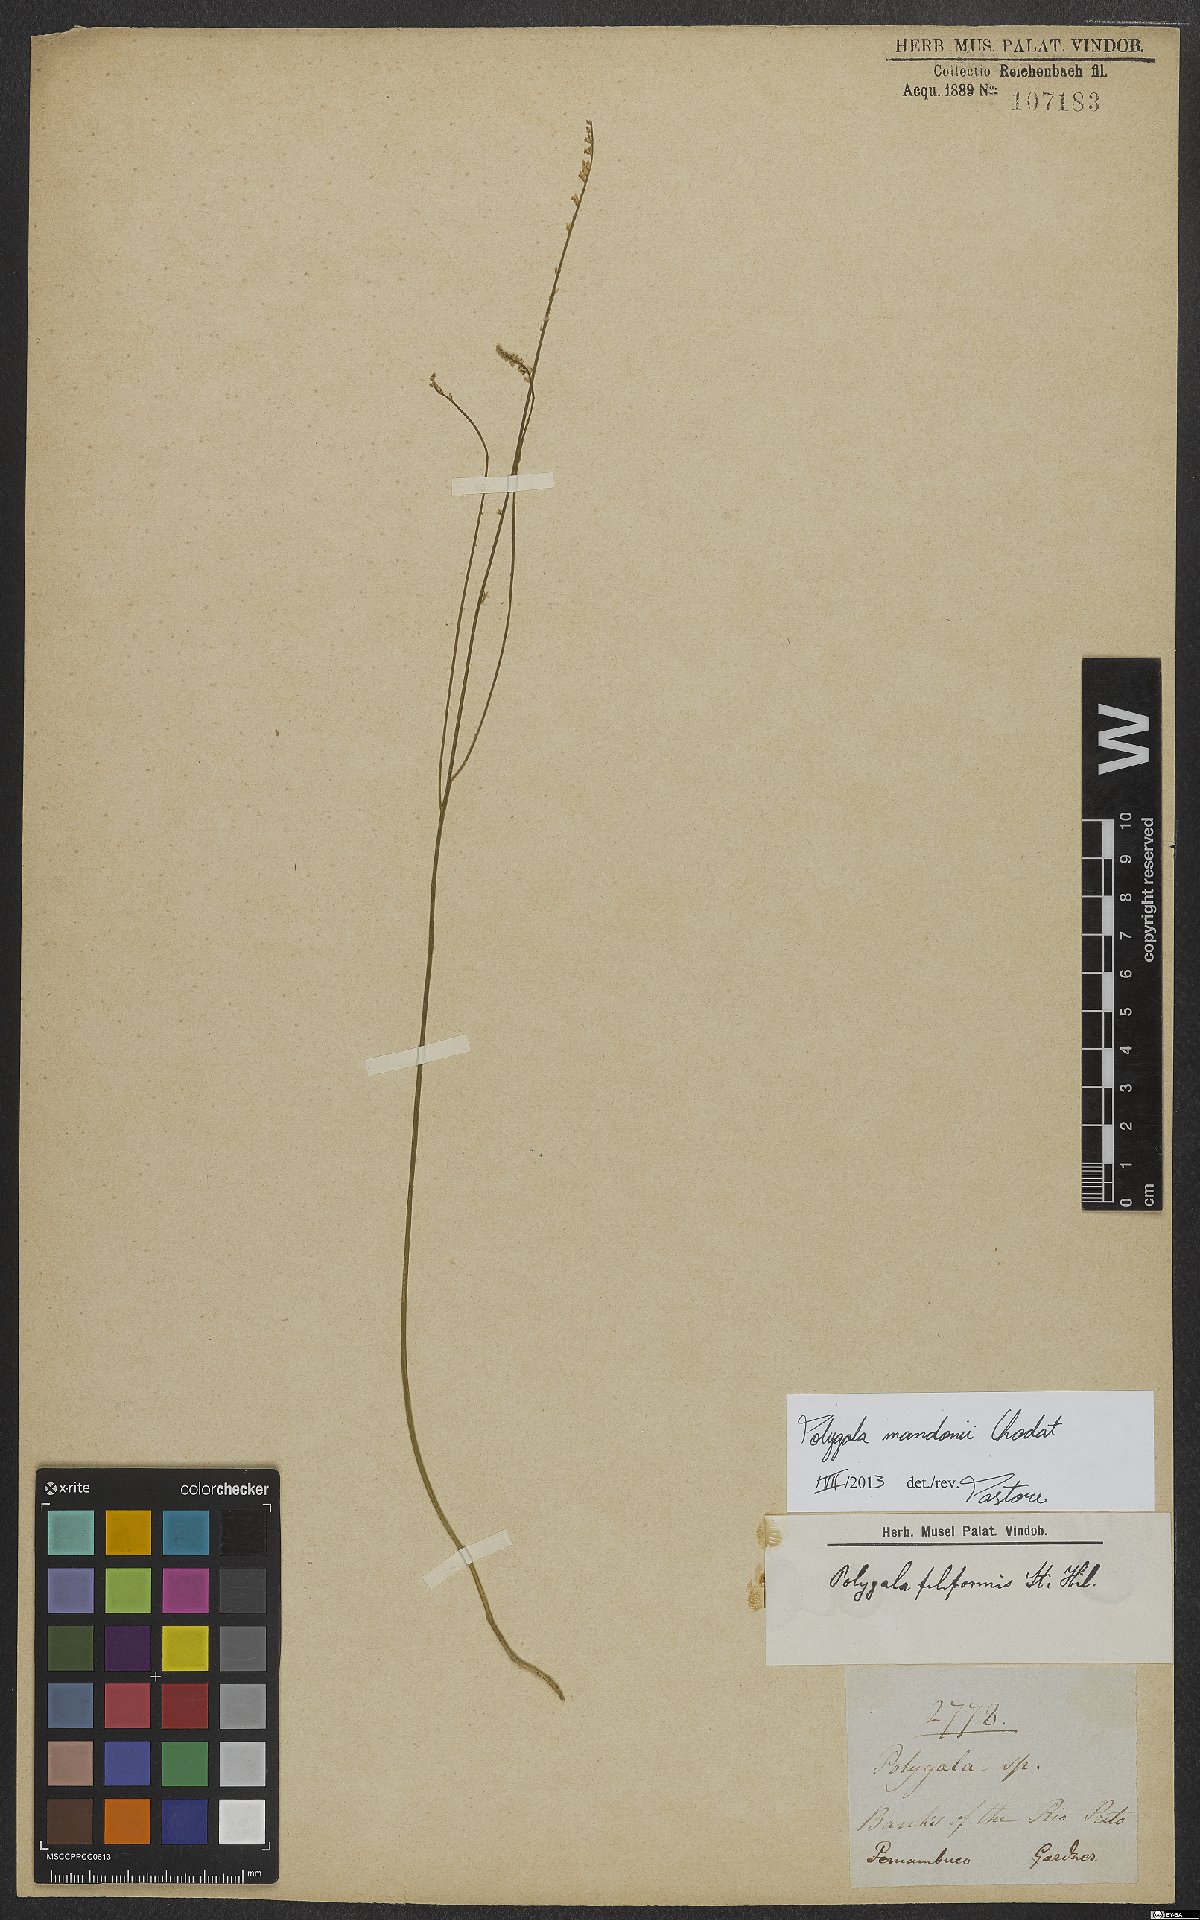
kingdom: Plantae
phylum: Tracheophyta
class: Magnoliopsida
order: Fabales
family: Polygalaceae
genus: Polygala
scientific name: Polygala mandonii
